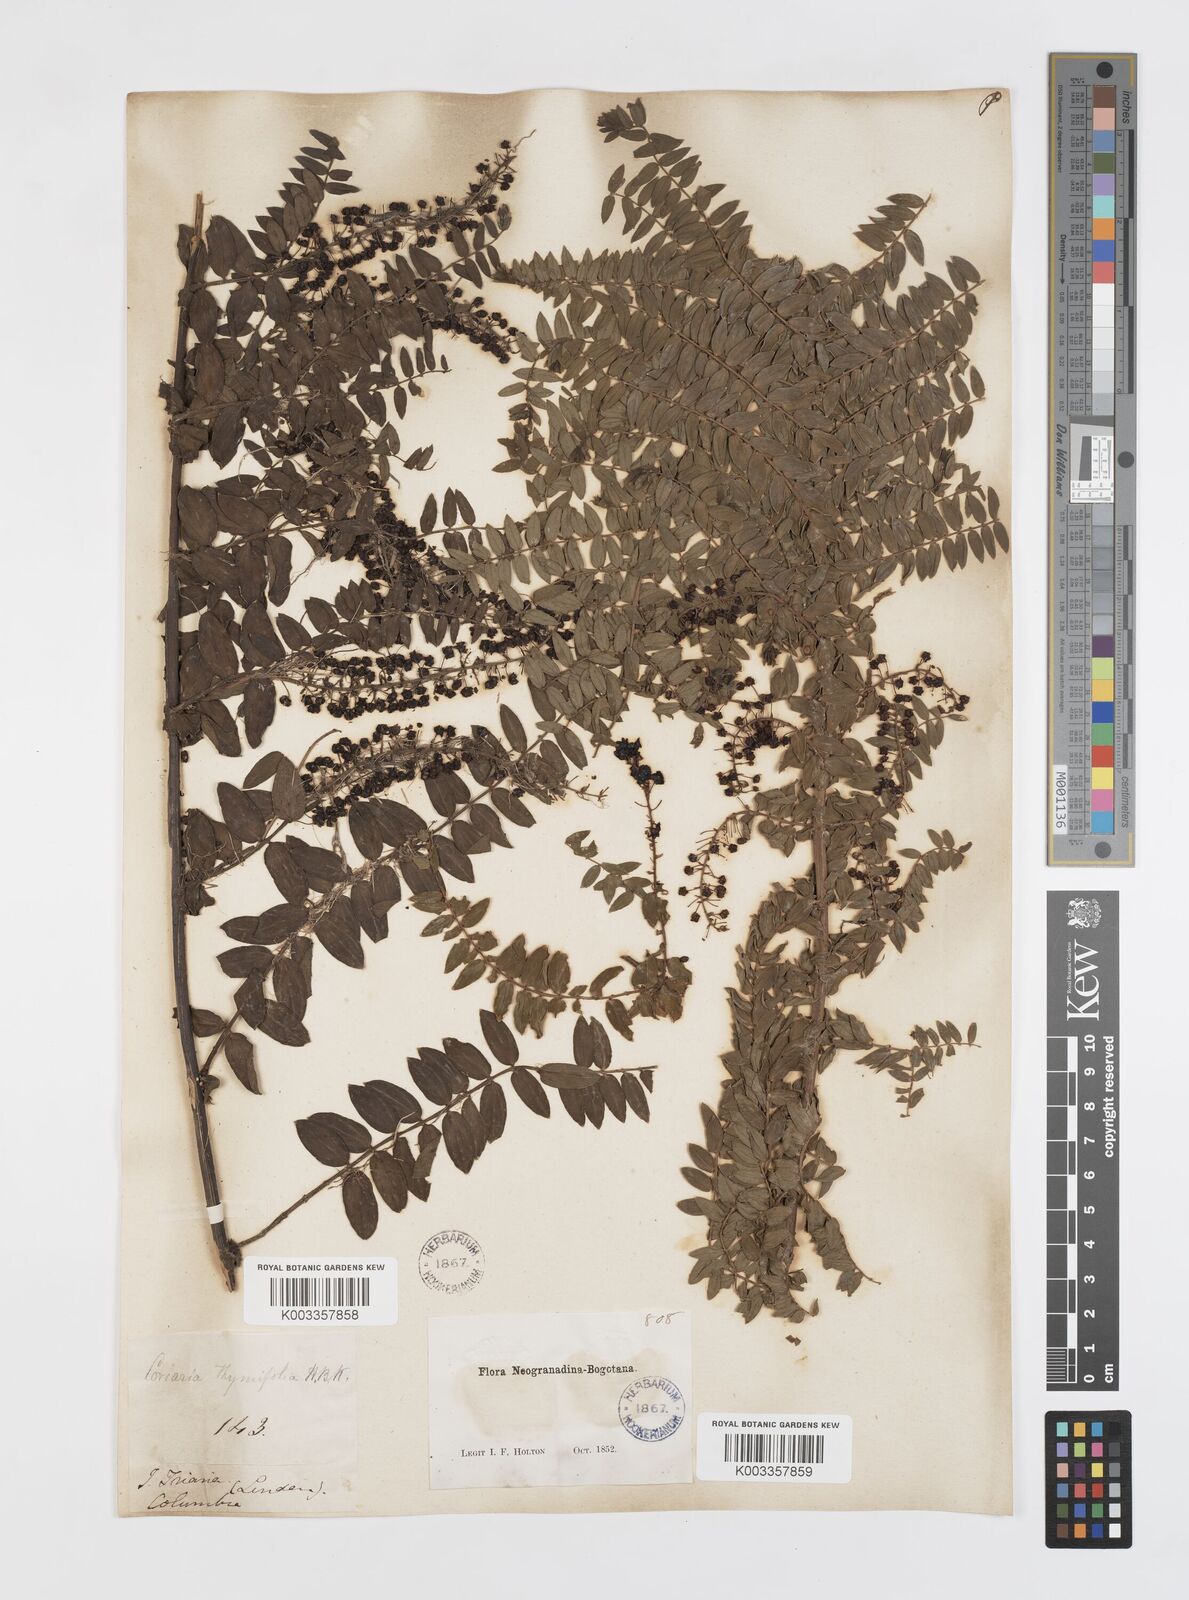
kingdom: Plantae
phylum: Tracheophyta
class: Magnoliopsida
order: Cucurbitales
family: Coriariaceae
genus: Coriaria
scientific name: Coriaria microphylla
